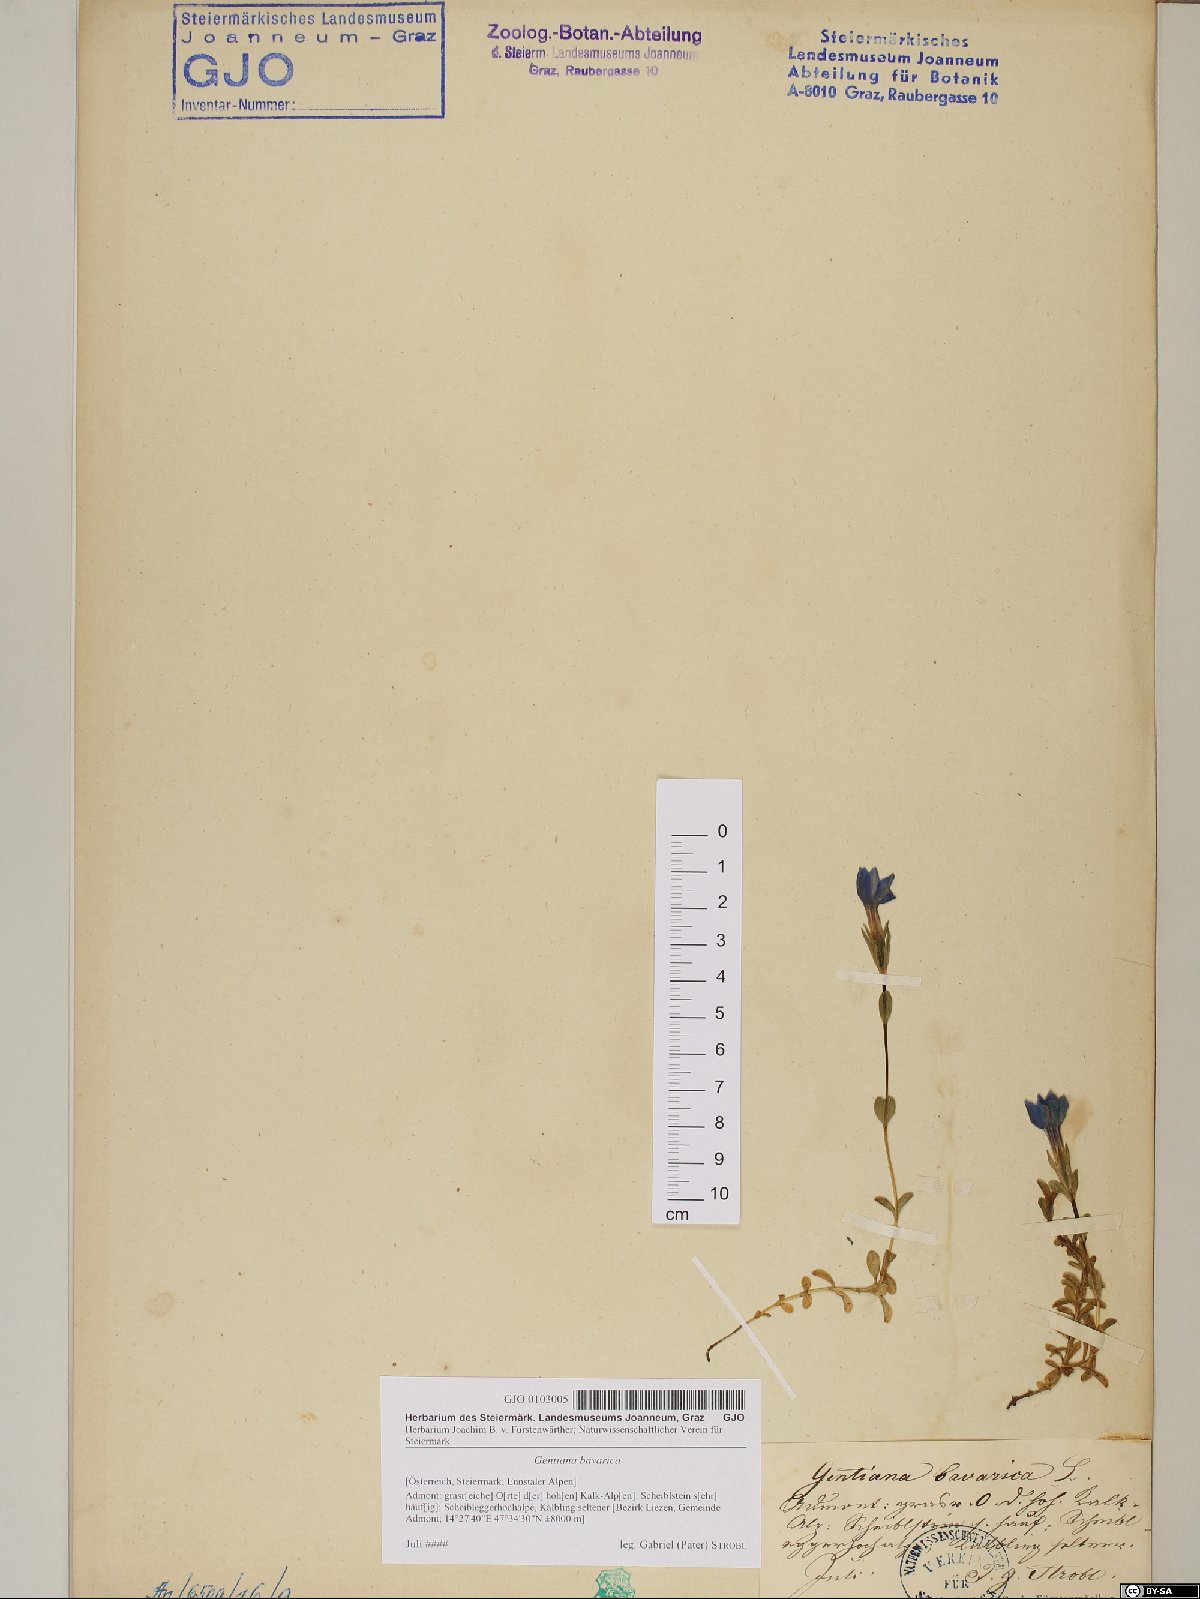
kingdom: Plantae
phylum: Tracheophyta
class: Magnoliopsida
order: Gentianales
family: Gentianaceae
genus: Gentiana
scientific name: Gentiana bavarica
